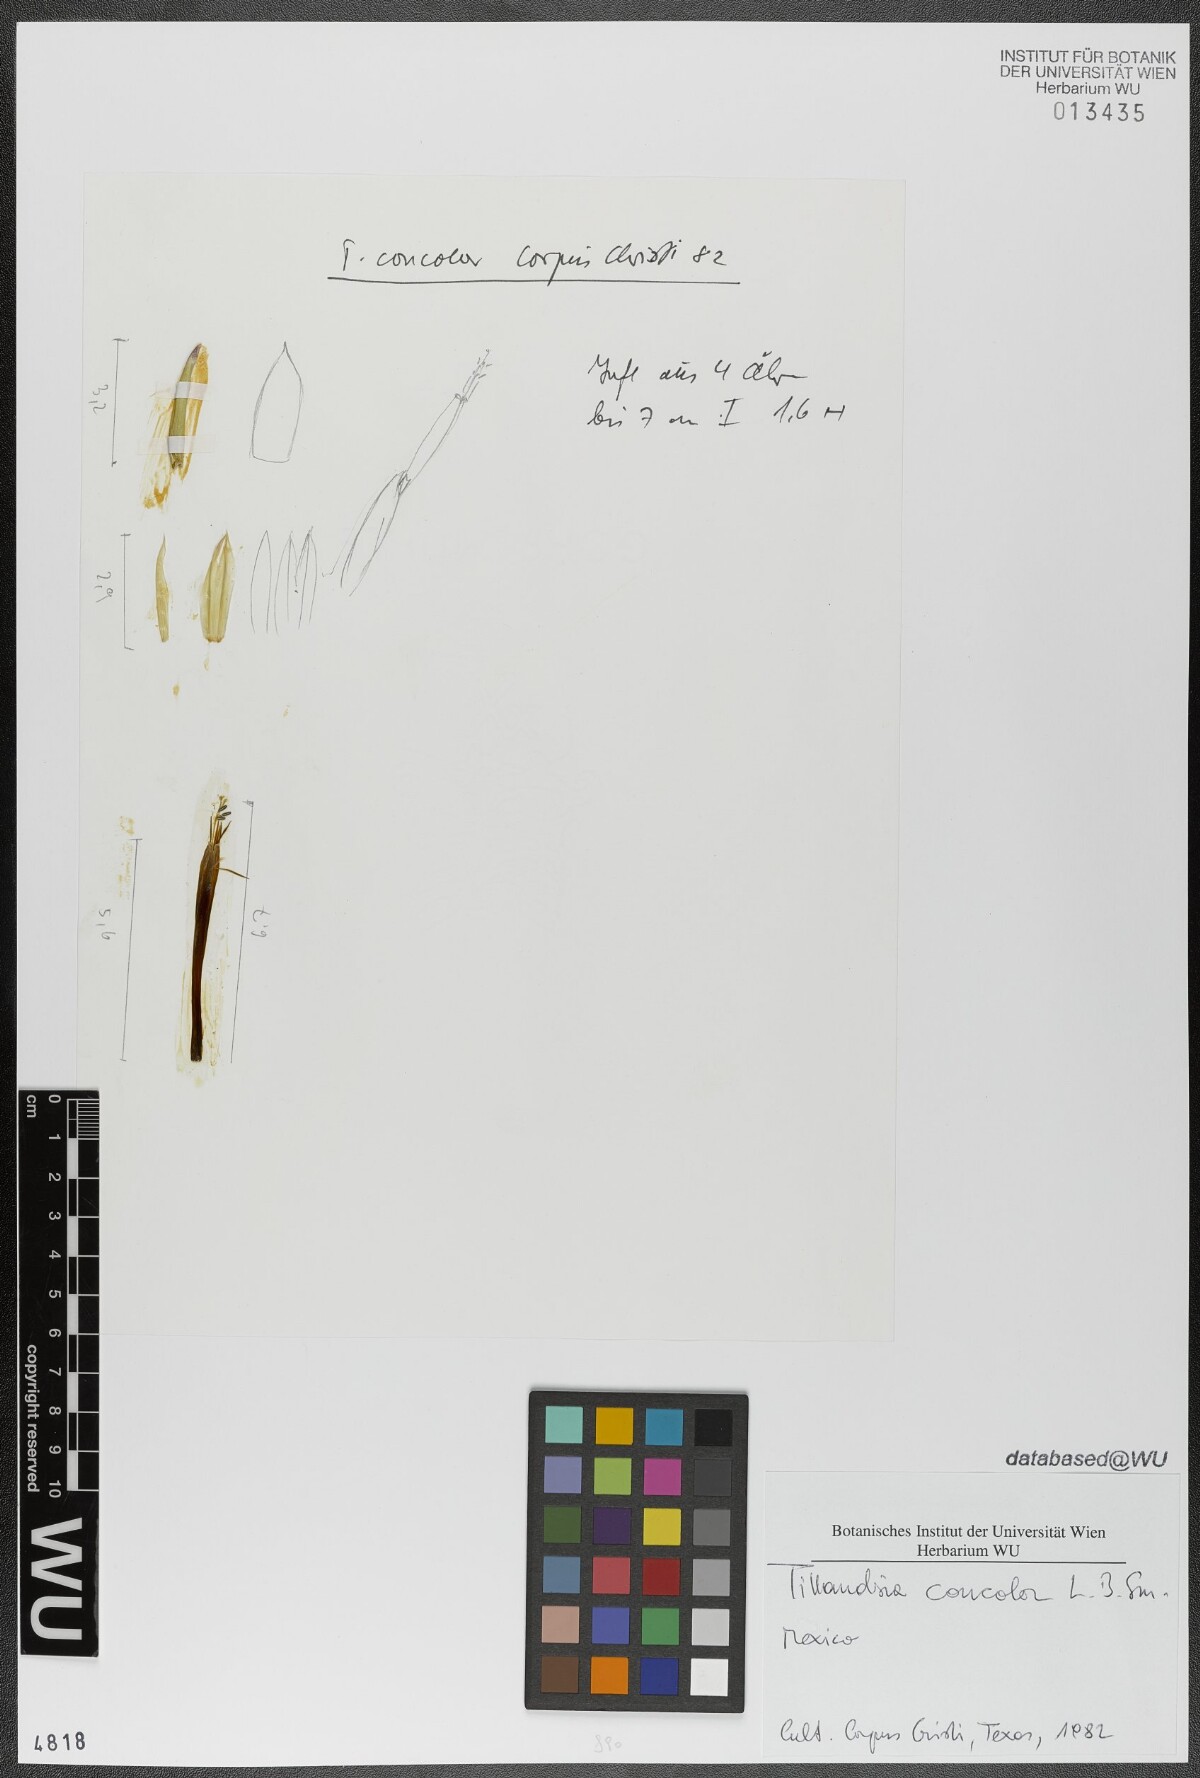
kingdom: Plantae
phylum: Tracheophyta
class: Liliopsida
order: Poales
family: Bromeliaceae
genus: Tillandsia
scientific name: Tillandsia concolor
